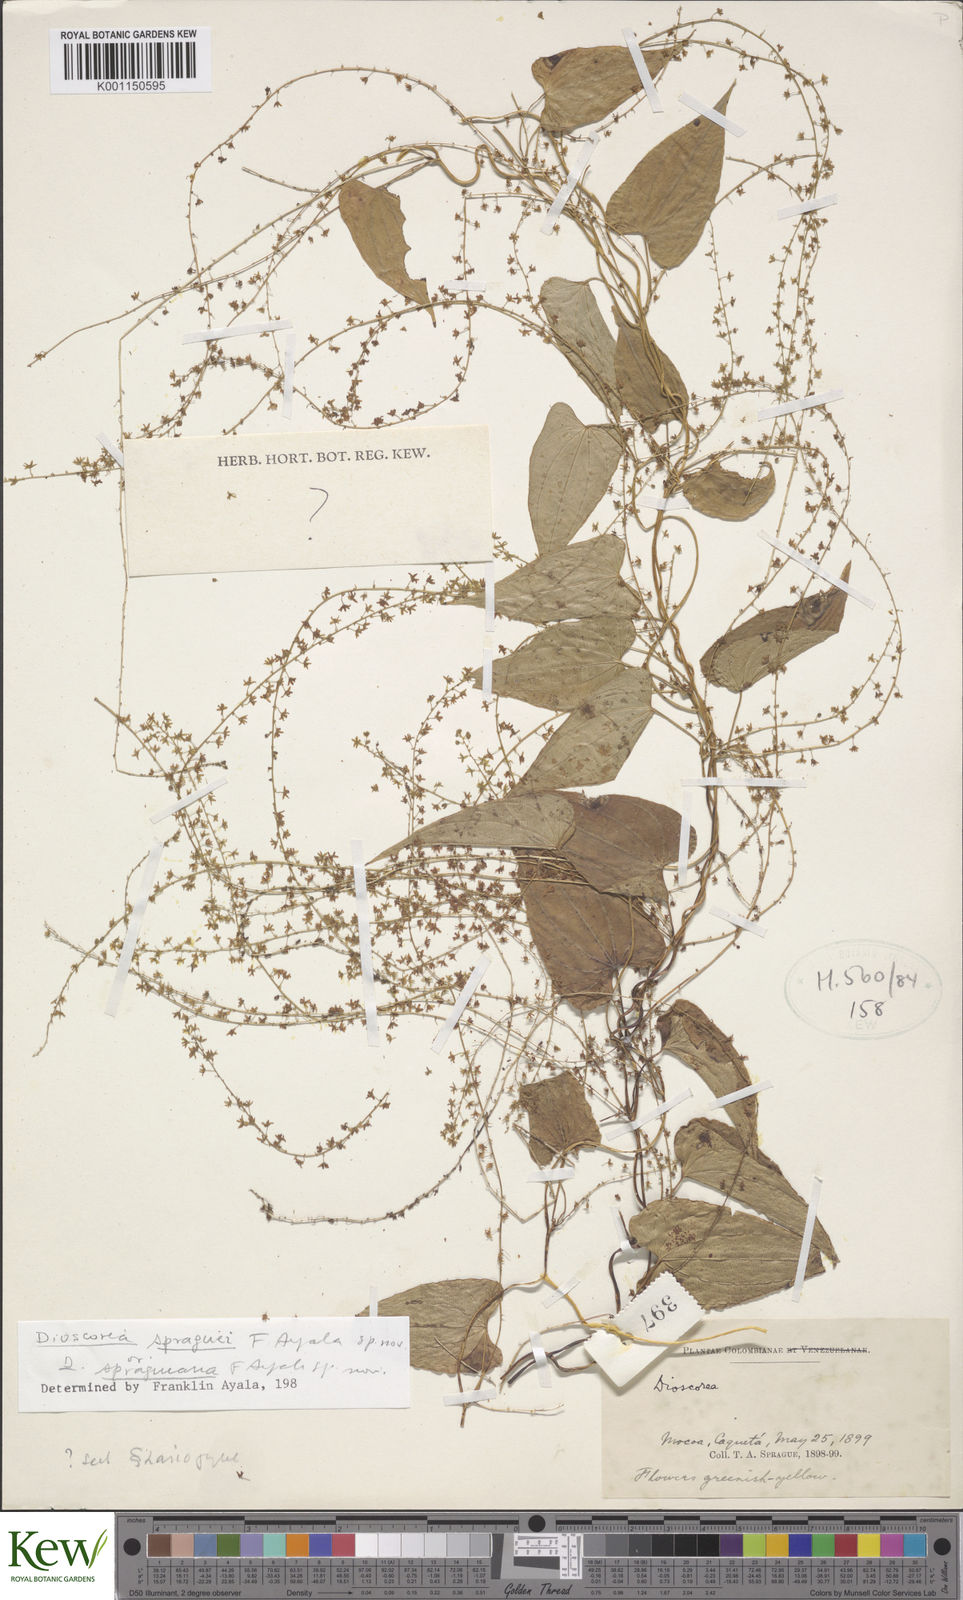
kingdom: Plantae
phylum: Tracheophyta
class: Liliopsida
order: Dioscoreales
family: Dioscoreaceae
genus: Dioscorea
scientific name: Dioscorea
